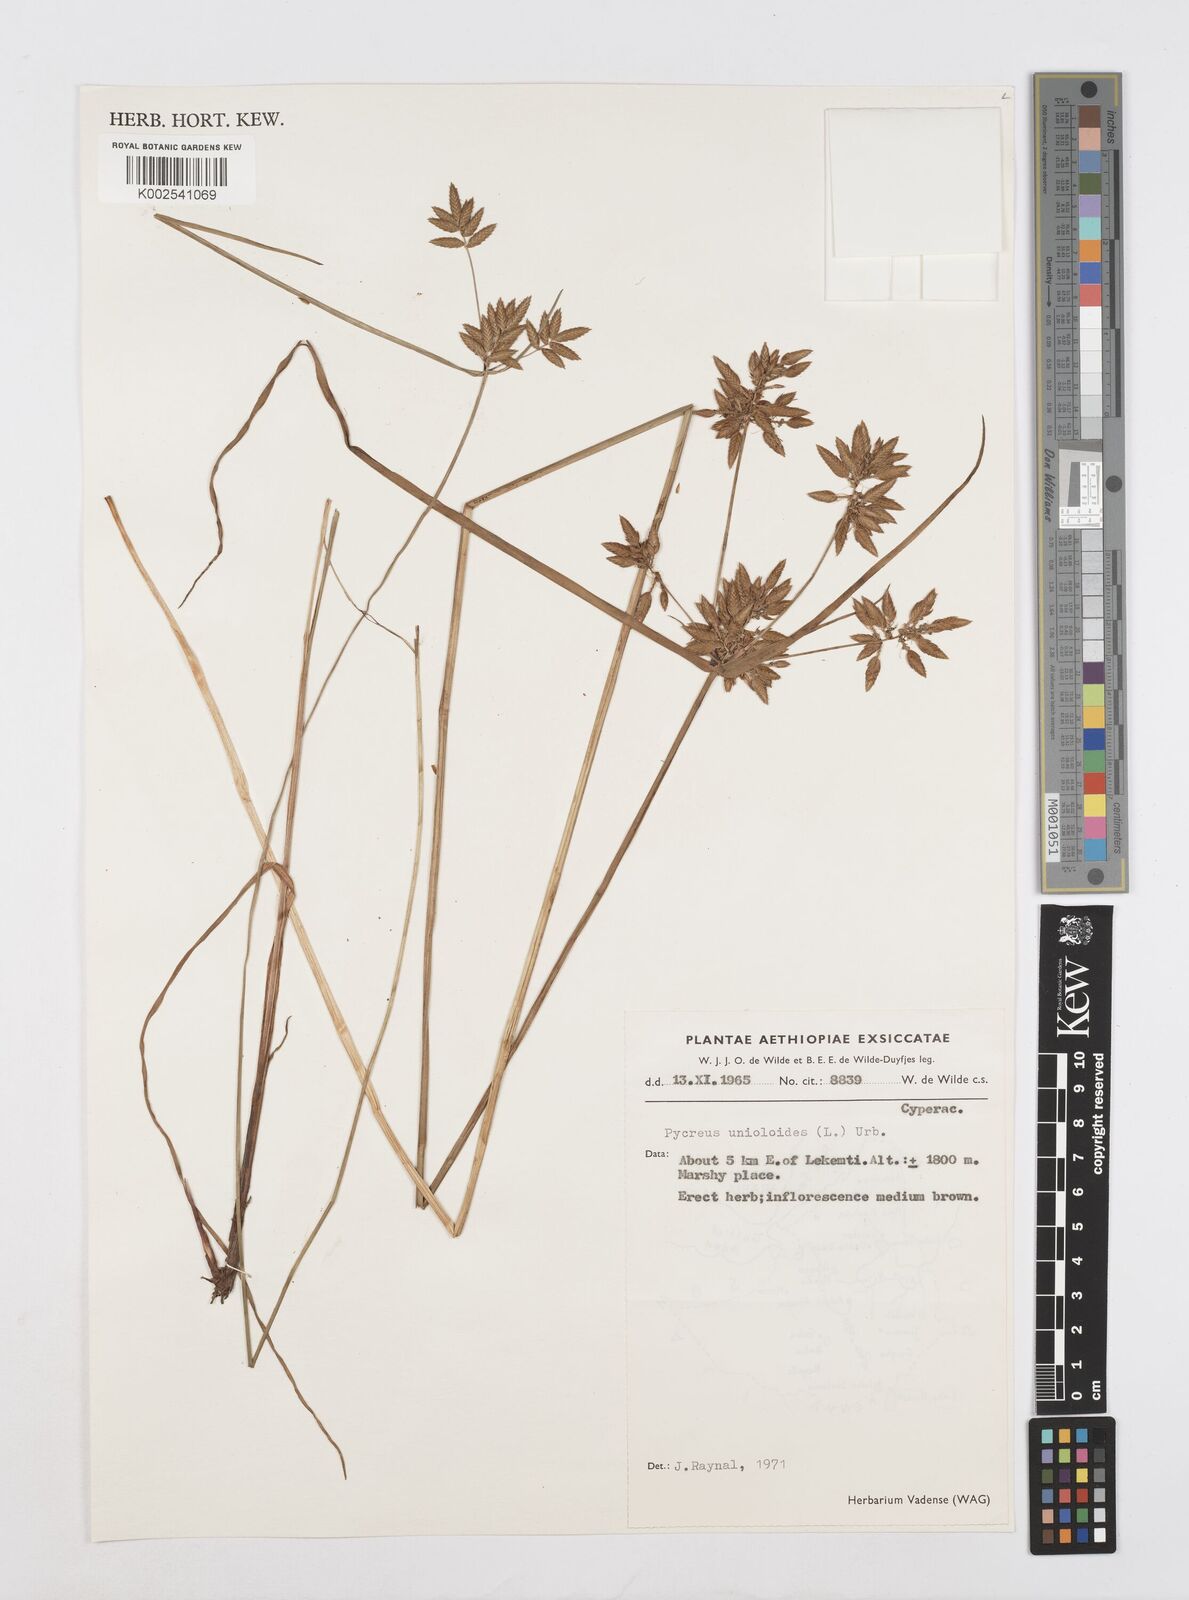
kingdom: Plantae
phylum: Tracheophyta
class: Liliopsida
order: Poales
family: Cyperaceae
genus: Cyperus
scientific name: Cyperus unioloides
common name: Uniola flatsedge
